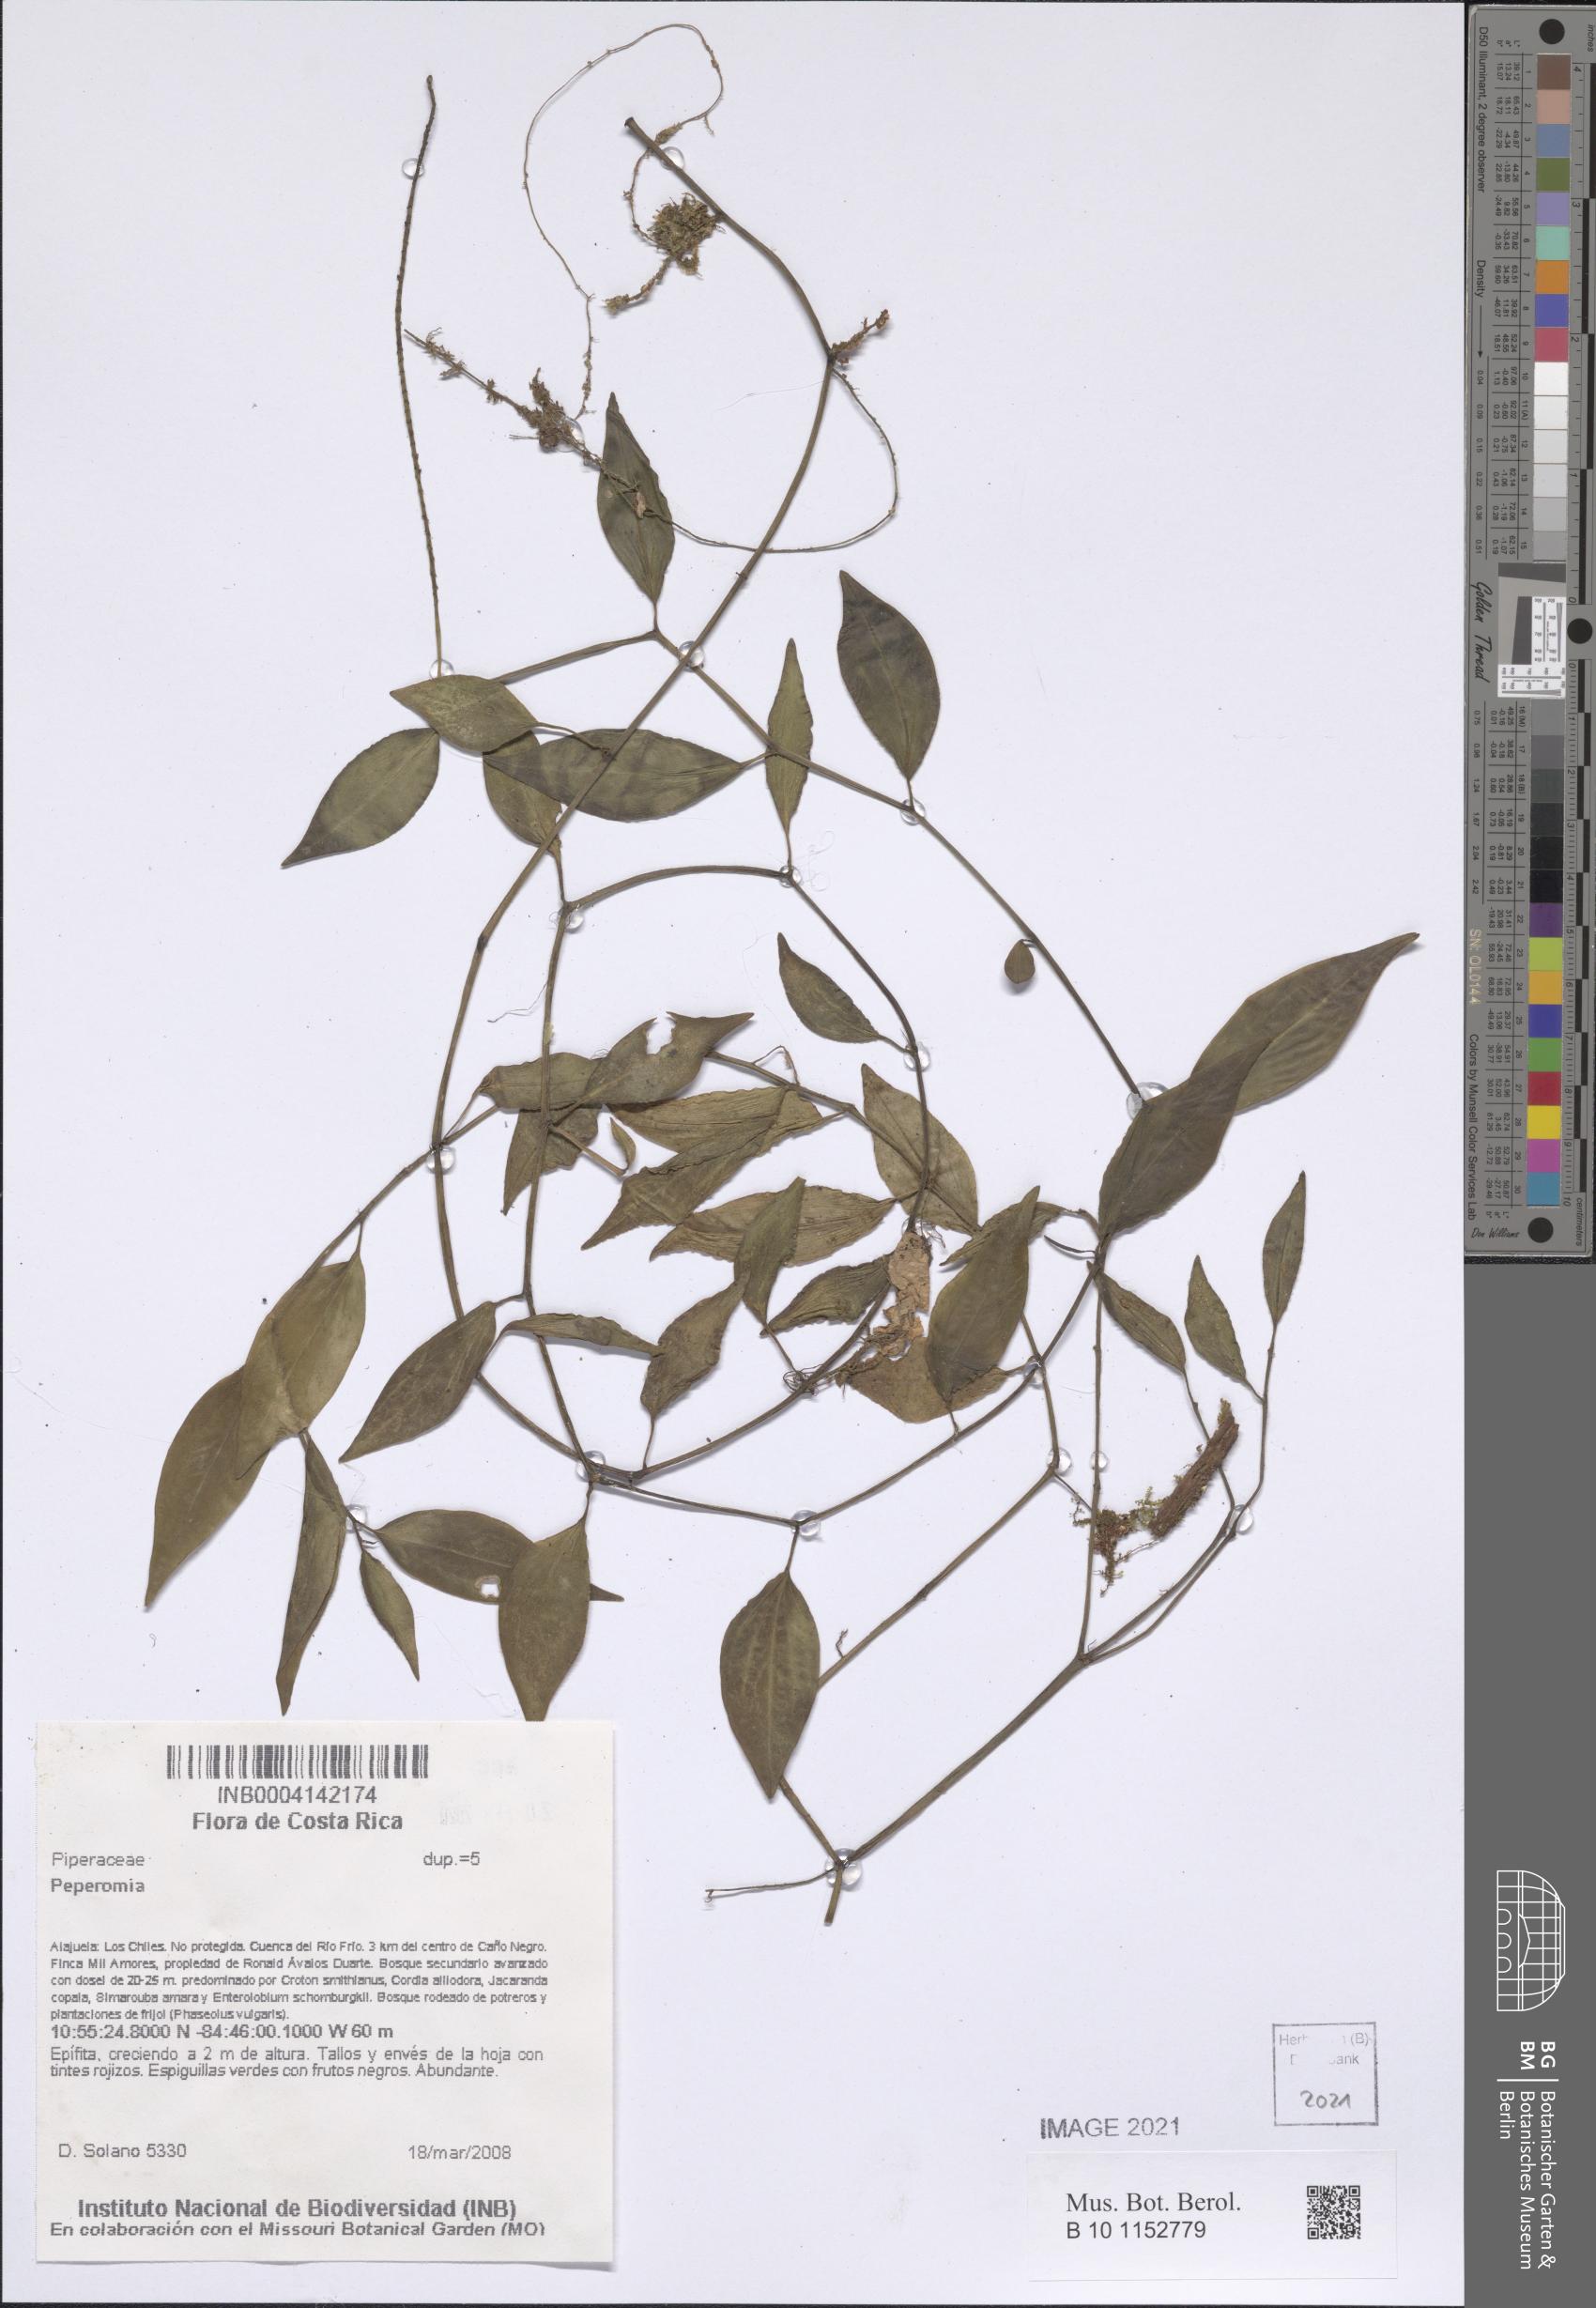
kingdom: Plantae
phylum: Tracheophyta
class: Magnoliopsida
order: Piperales
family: Piperaceae
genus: Peperomia
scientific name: Peperomia
